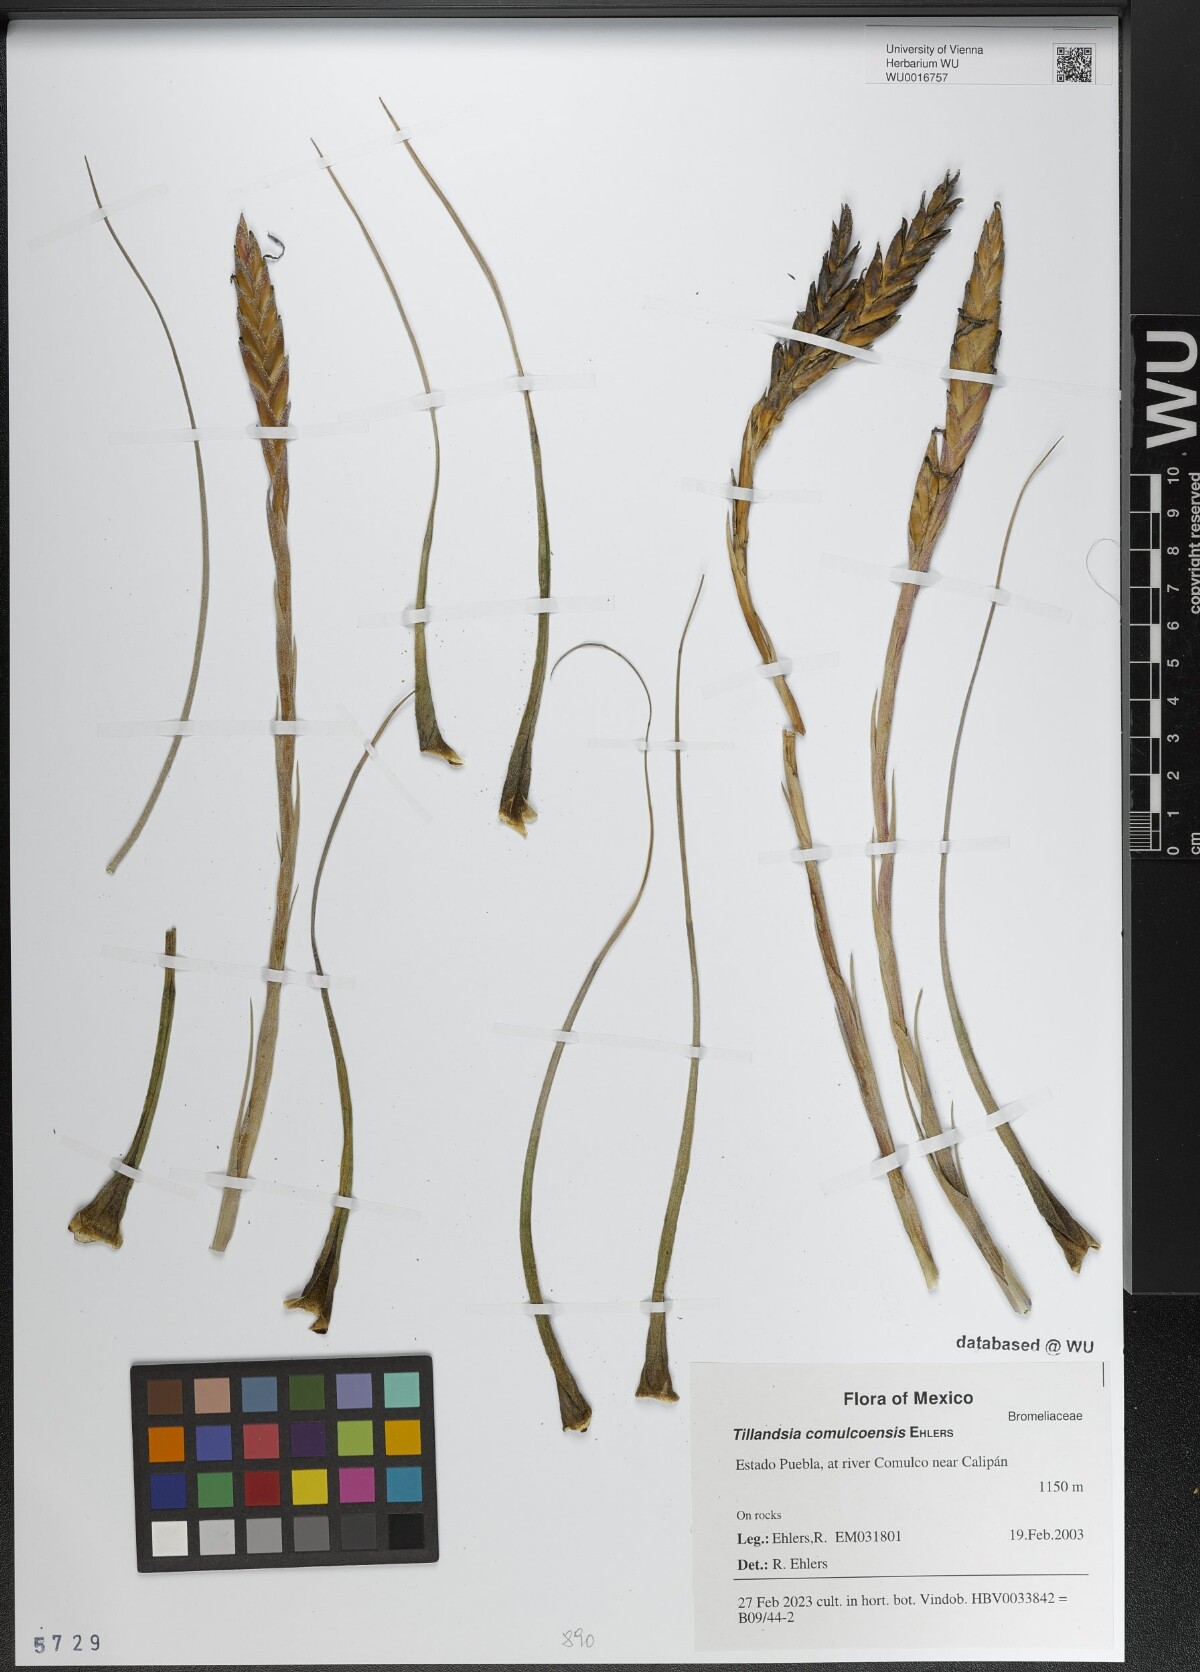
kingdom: Plantae
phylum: Tracheophyta
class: Liliopsida
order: Poales
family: Bromeliaceae
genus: Tillandsia
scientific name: Tillandsia comulcoensis
